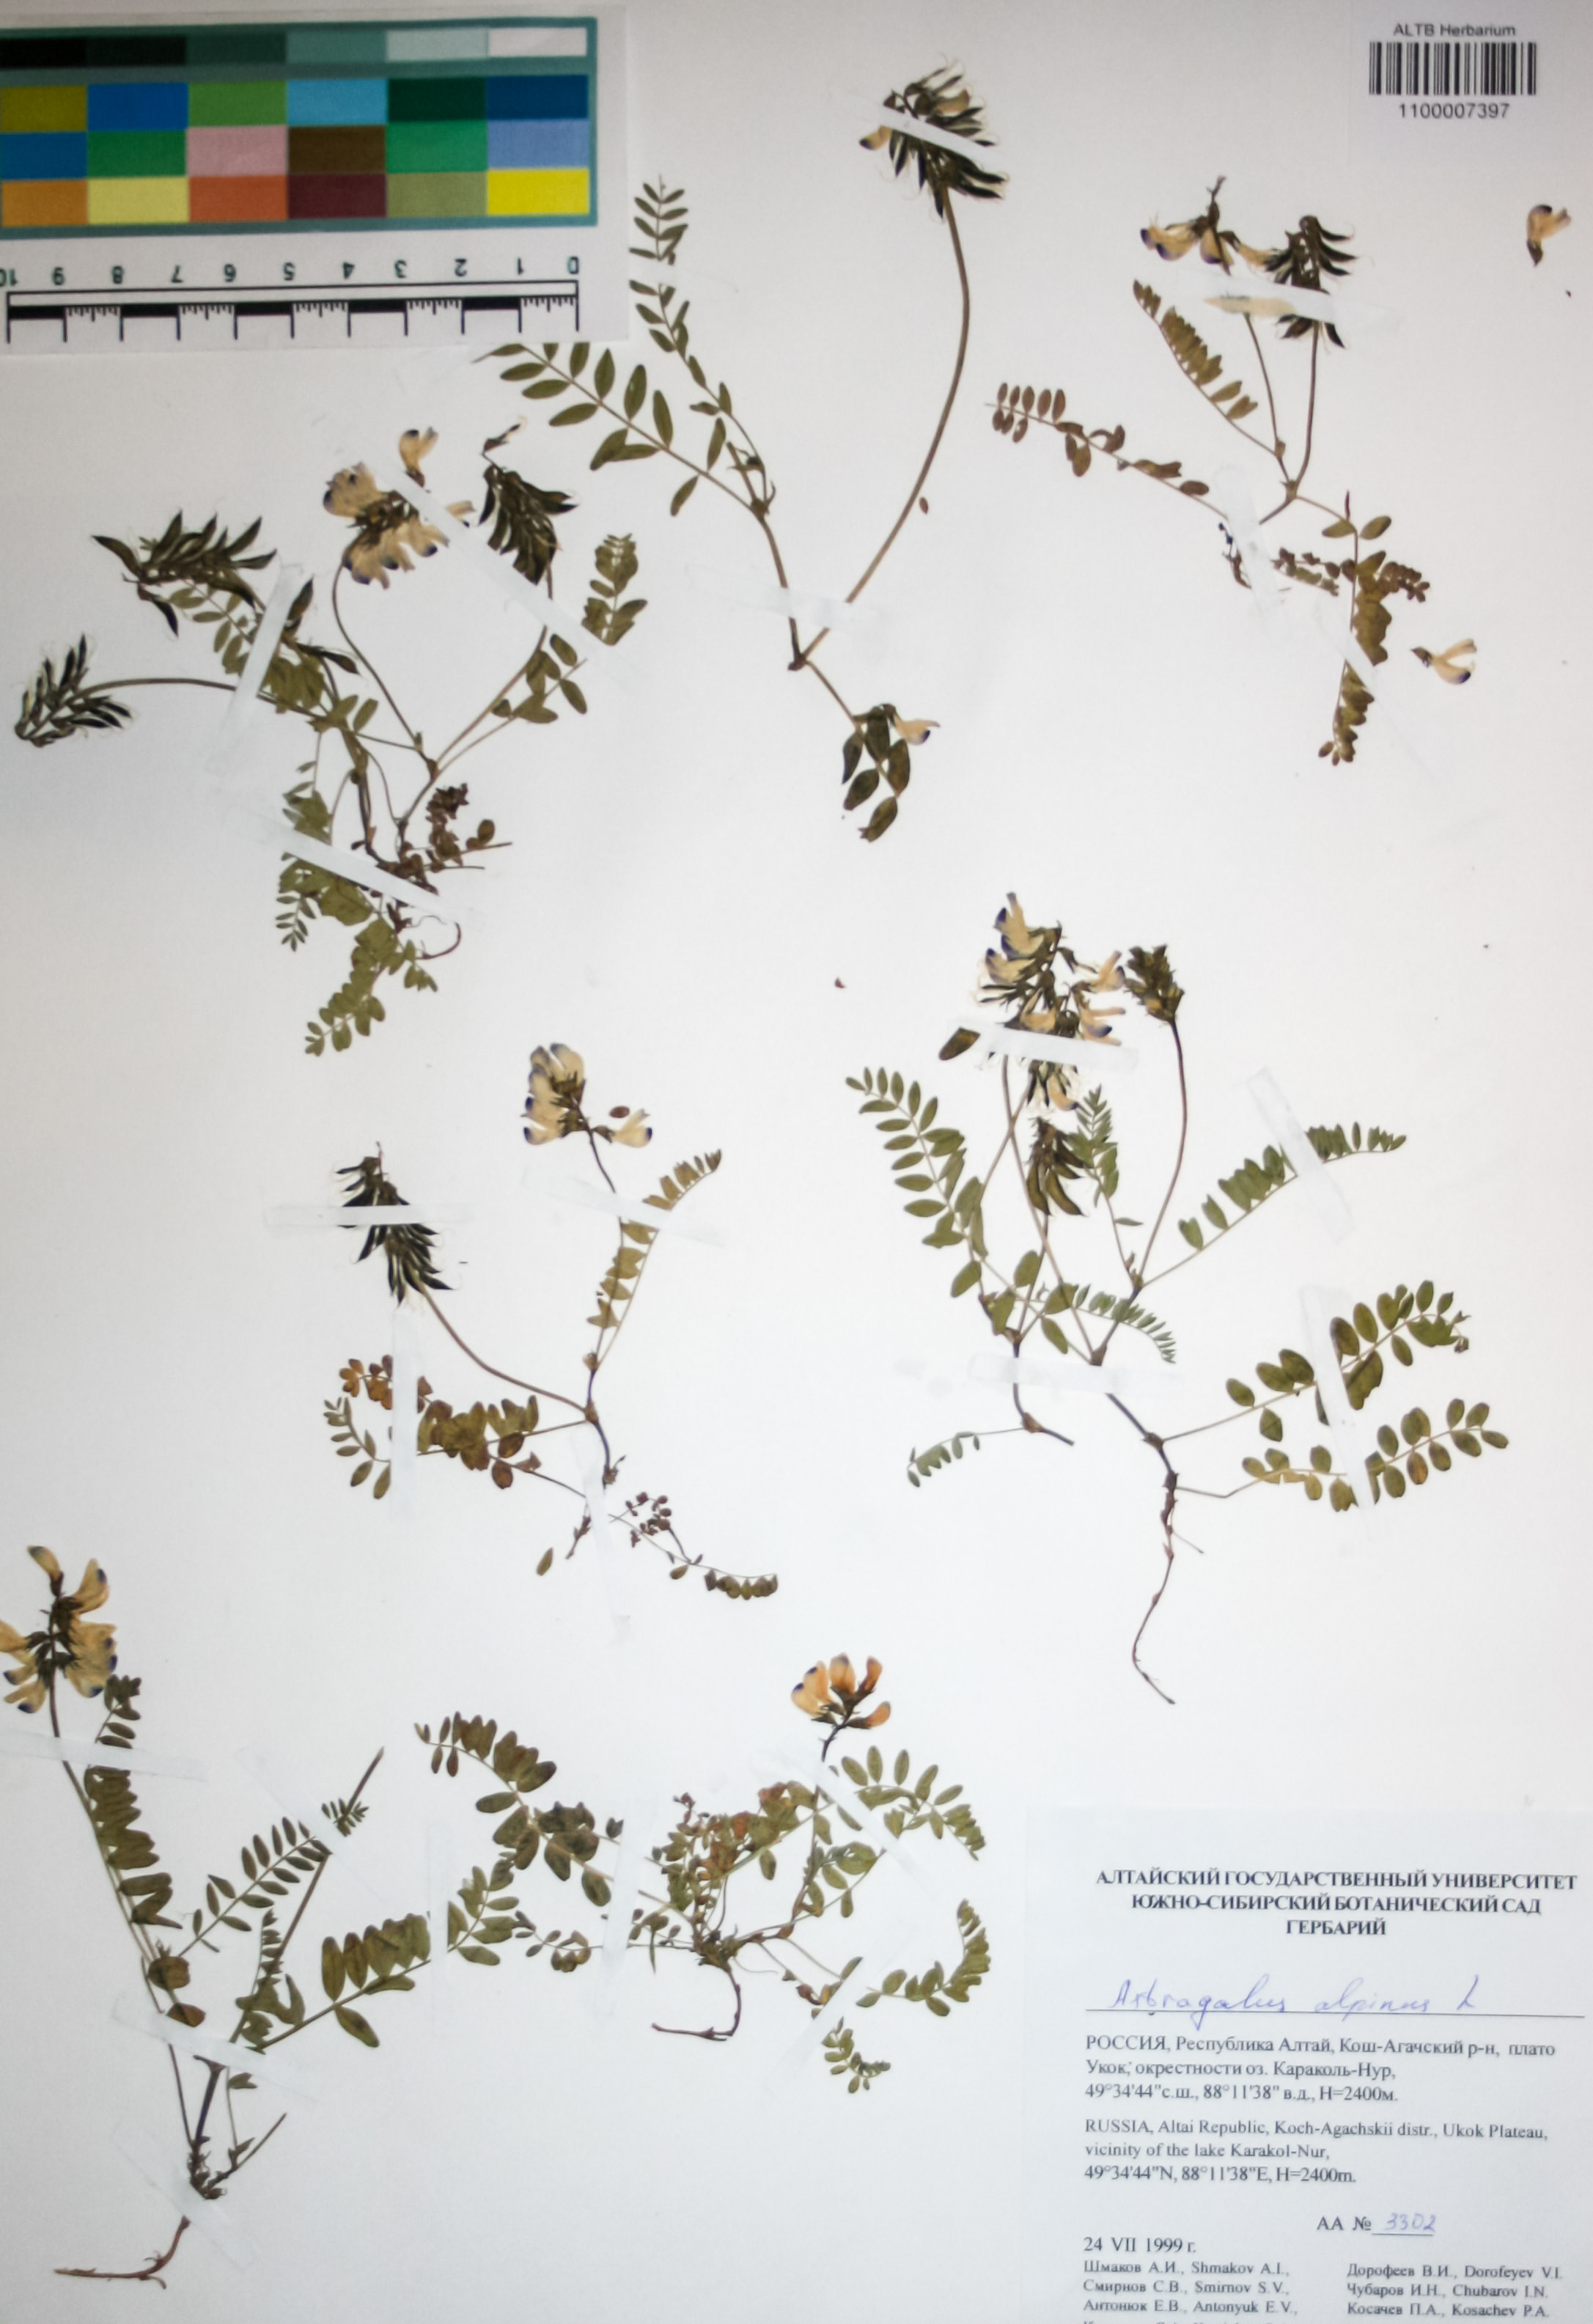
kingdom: Plantae
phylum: Tracheophyta
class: Magnoliopsida
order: Fabales
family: Fabaceae
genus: Astragalus
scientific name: Astragalus alpinus
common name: Alpine milk-vetch
